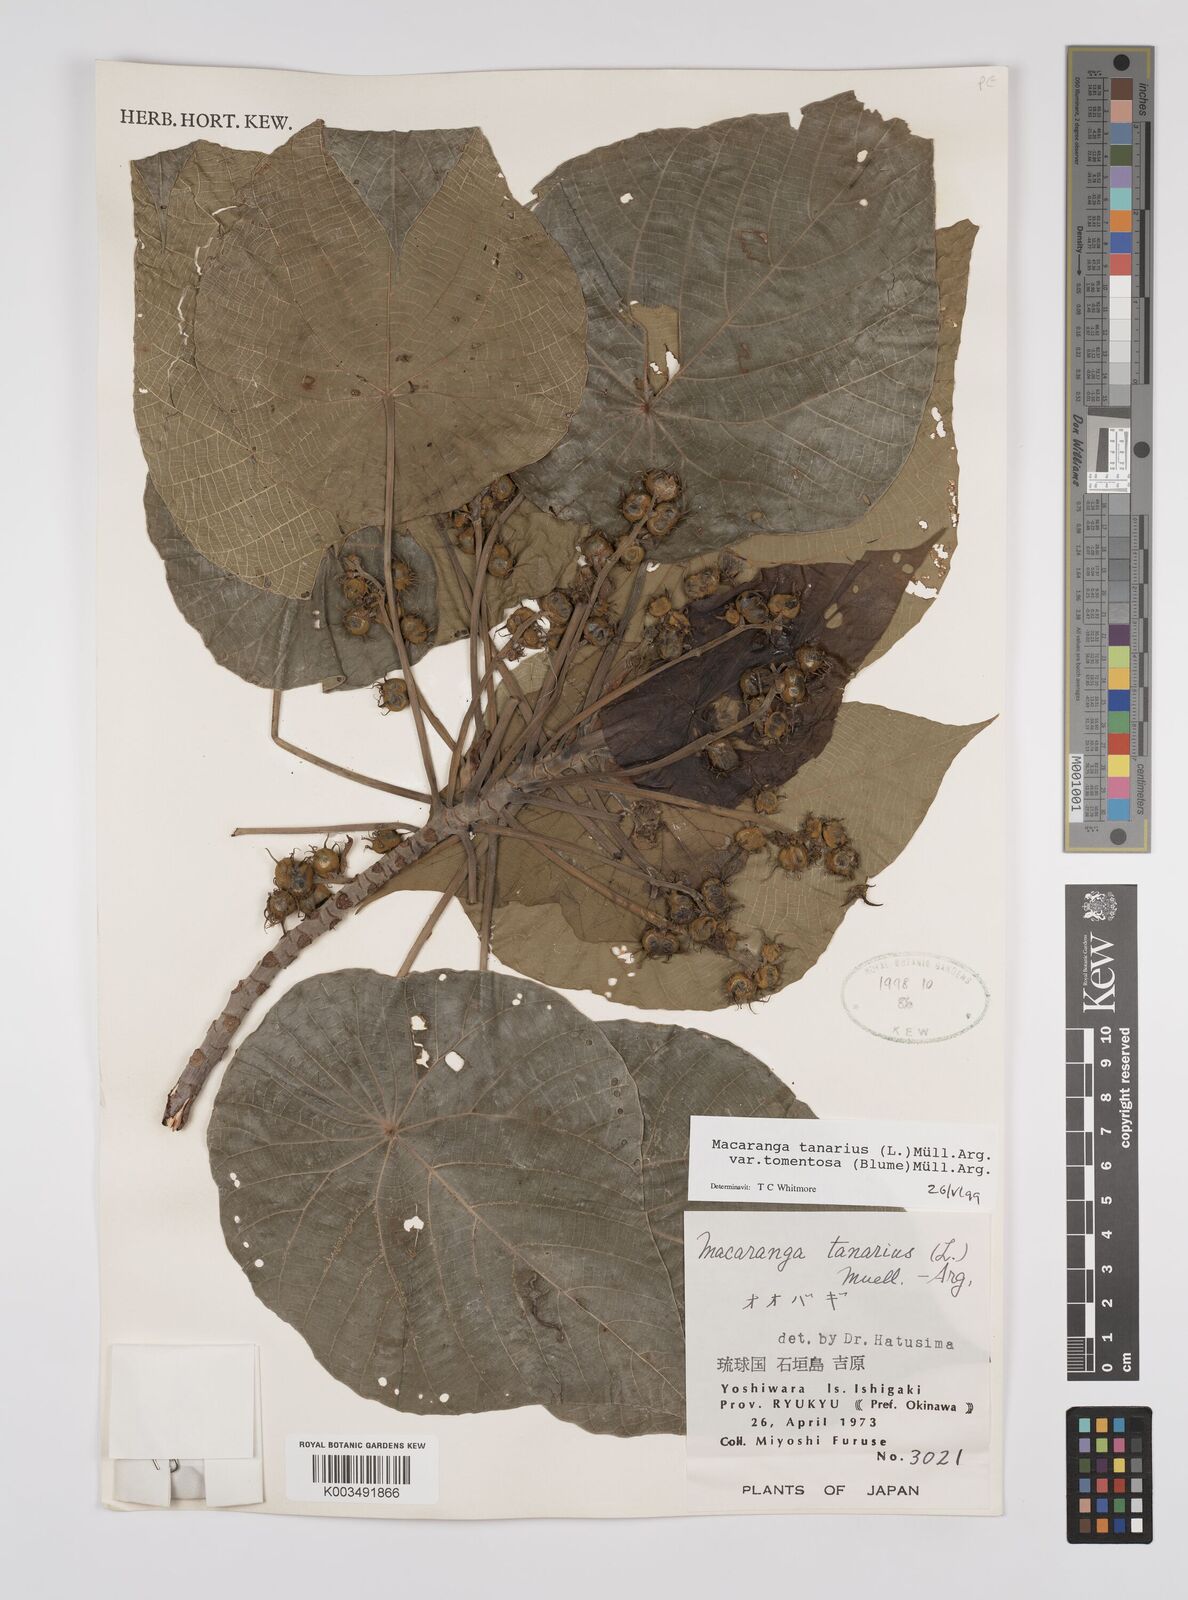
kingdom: Plantae
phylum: Tracheophyta
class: Magnoliopsida
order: Malpighiales
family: Euphorbiaceae
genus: Macaranga
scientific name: Macaranga tanarius
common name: Parasol leaf tree
